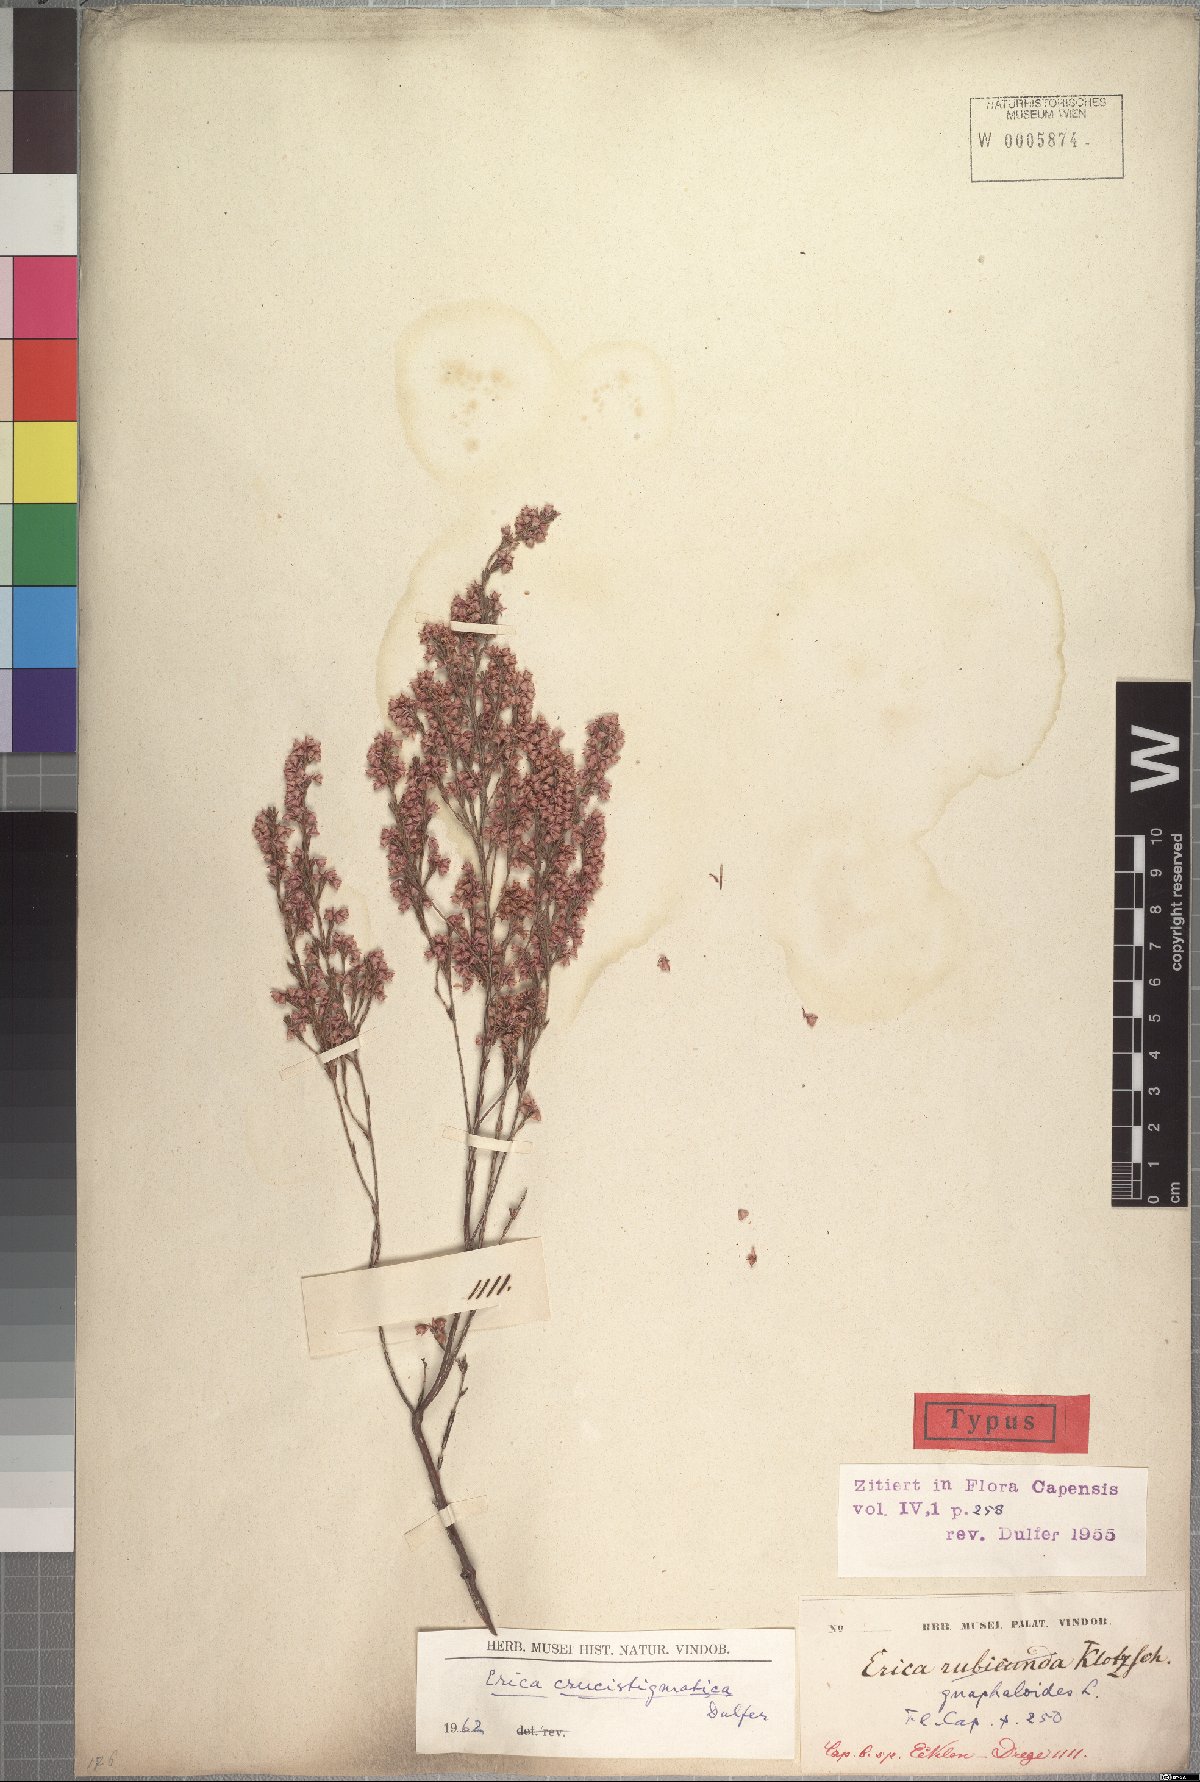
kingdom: Plantae
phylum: Tracheophyta
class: Magnoliopsida
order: Ericales
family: Ericaceae
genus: Erica
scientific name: Erica gnaphaloides
